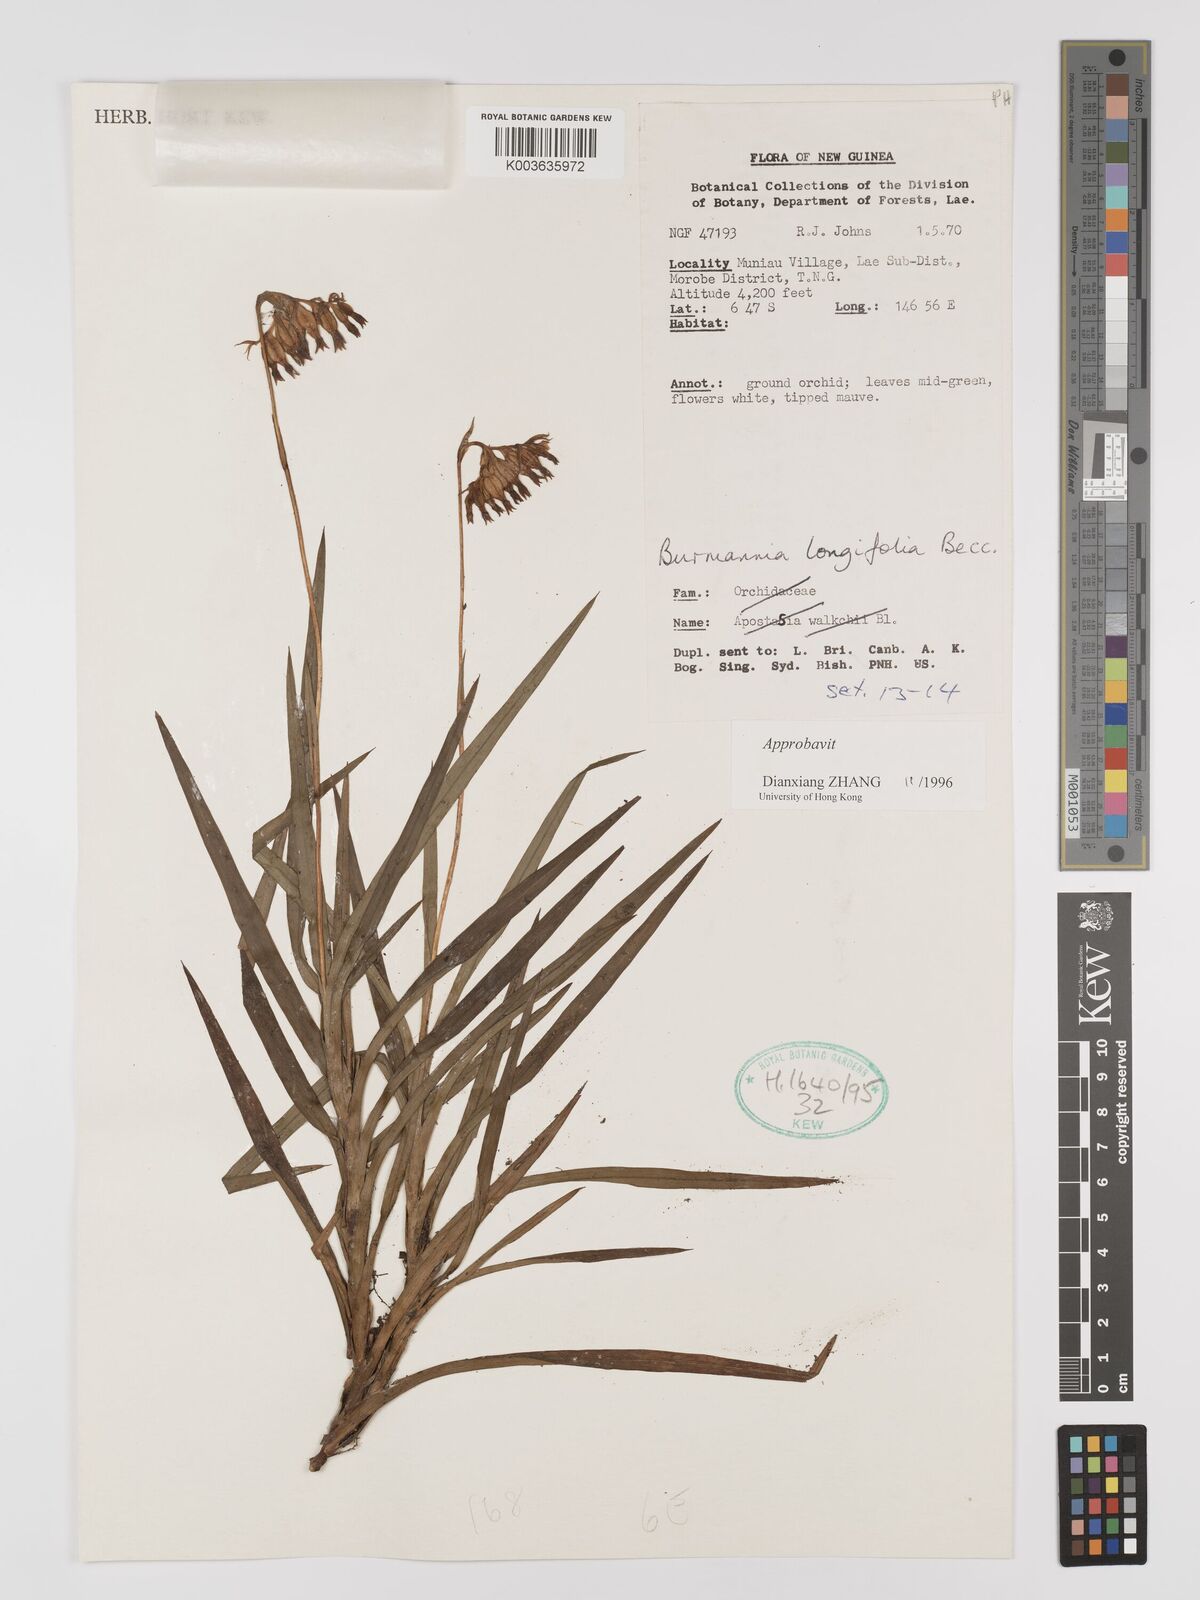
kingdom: Plantae
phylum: Tracheophyta
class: Liliopsida
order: Dioscoreales
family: Burmanniaceae
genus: Burmannia
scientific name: Burmannia longifolia
